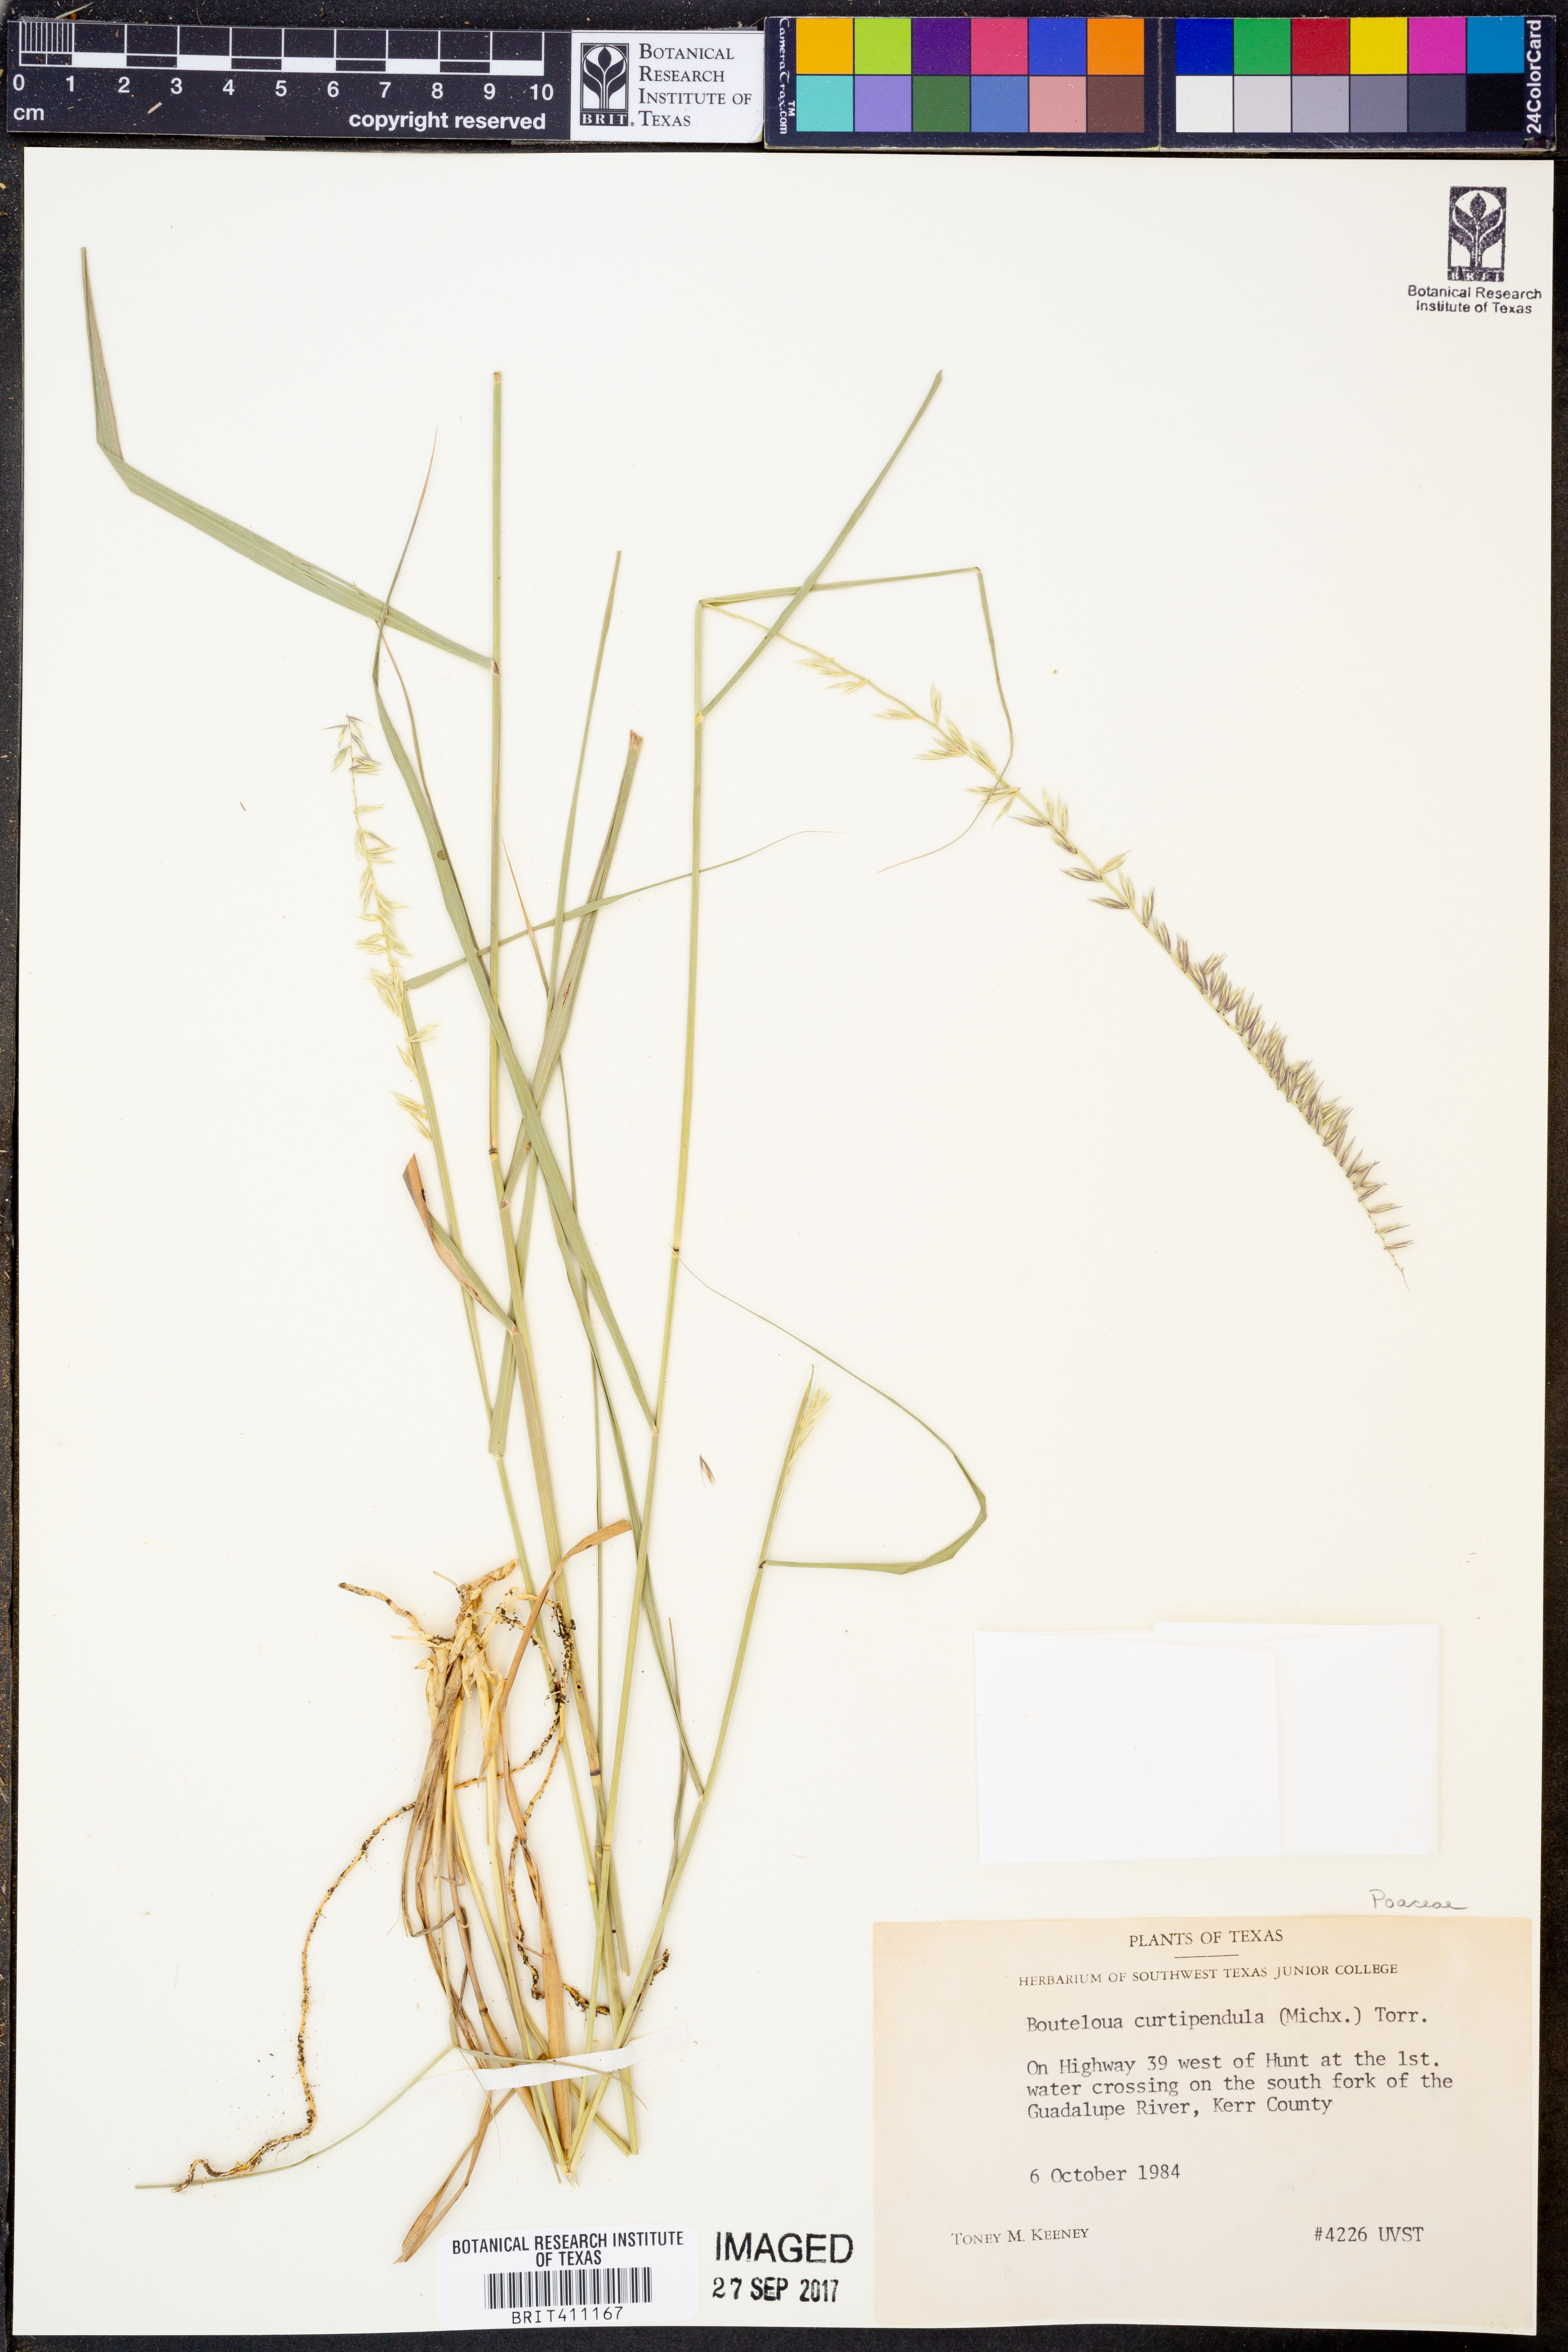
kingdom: Plantae
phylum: Tracheophyta
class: Liliopsida
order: Poales
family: Poaceae
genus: Bouteloua
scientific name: Bouteloua curtipendula
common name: Side-oats grama
